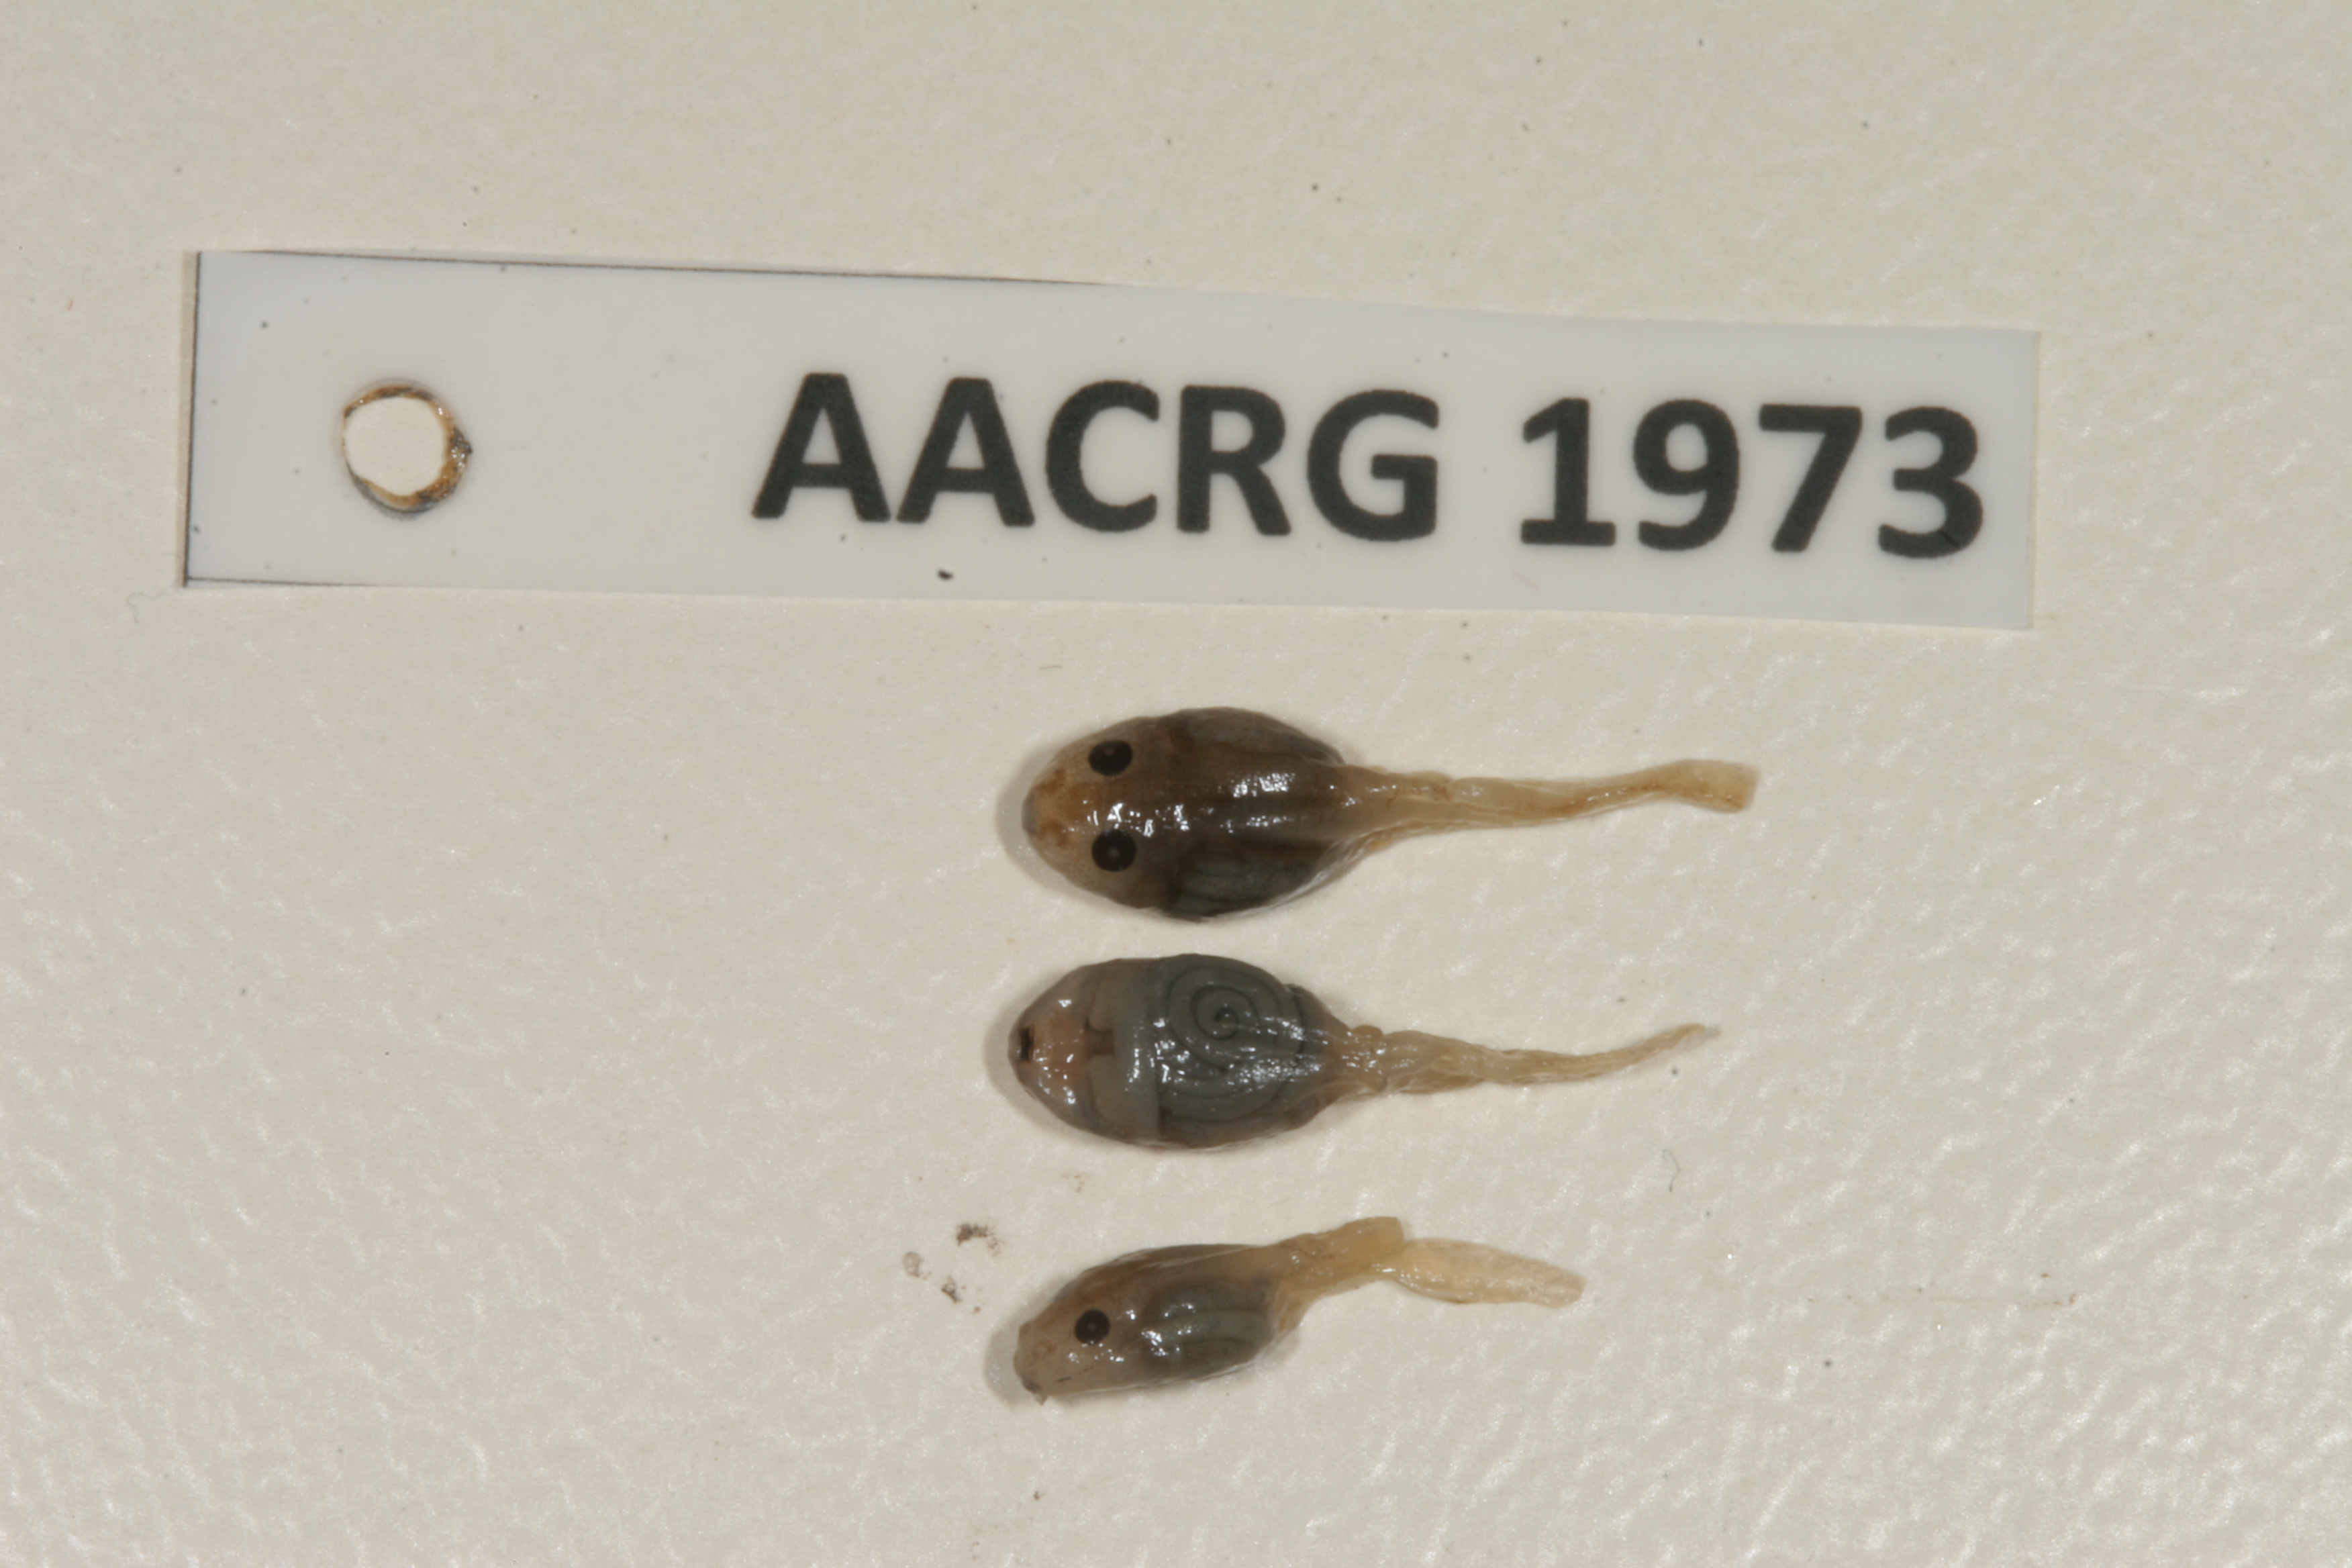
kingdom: Animalia
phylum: Chordata
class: Amphibia
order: Anura
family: Ptychadenidae
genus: Ptychadena
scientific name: Ptychadena anchietae
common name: Anchieta's ridged frog
